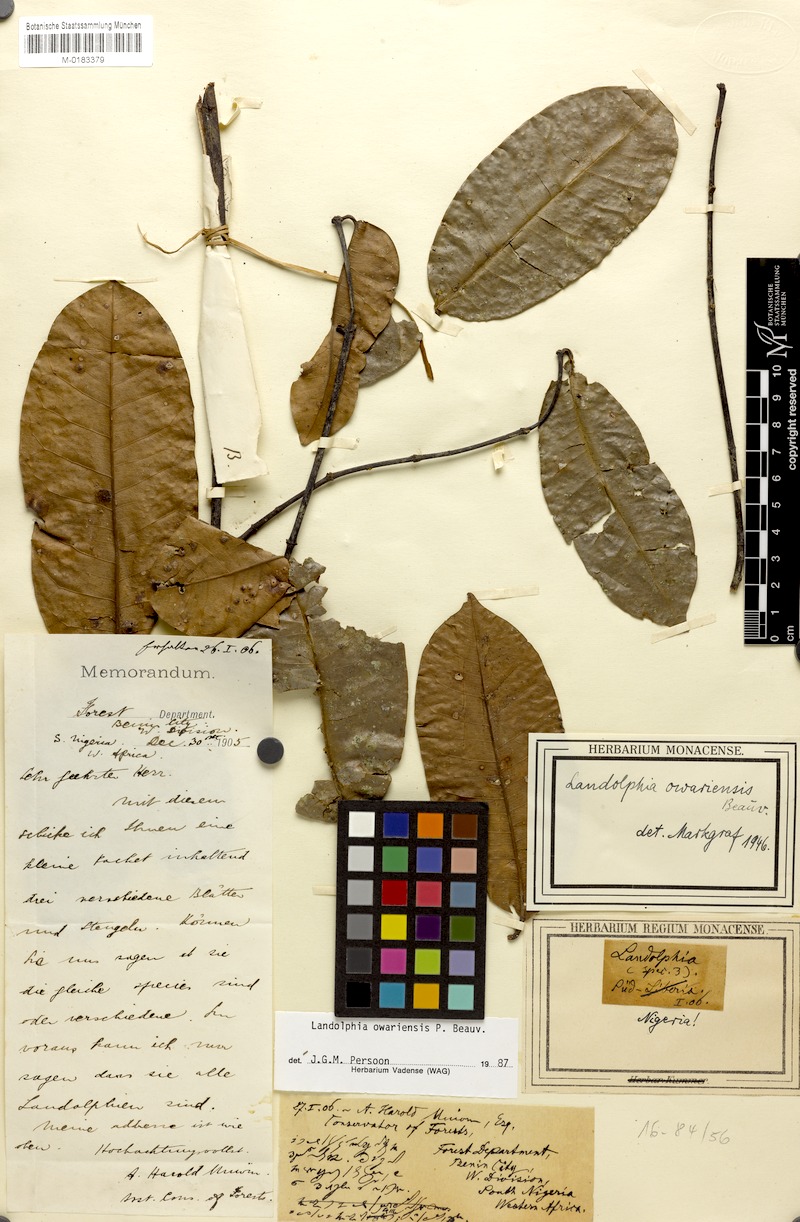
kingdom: Plantae
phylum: Tracheophyta
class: Magnoliopsida
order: Gentianales
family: Apocynaceae
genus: Landolphia
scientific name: Landolphia owariensis
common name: White-ball-rubber
